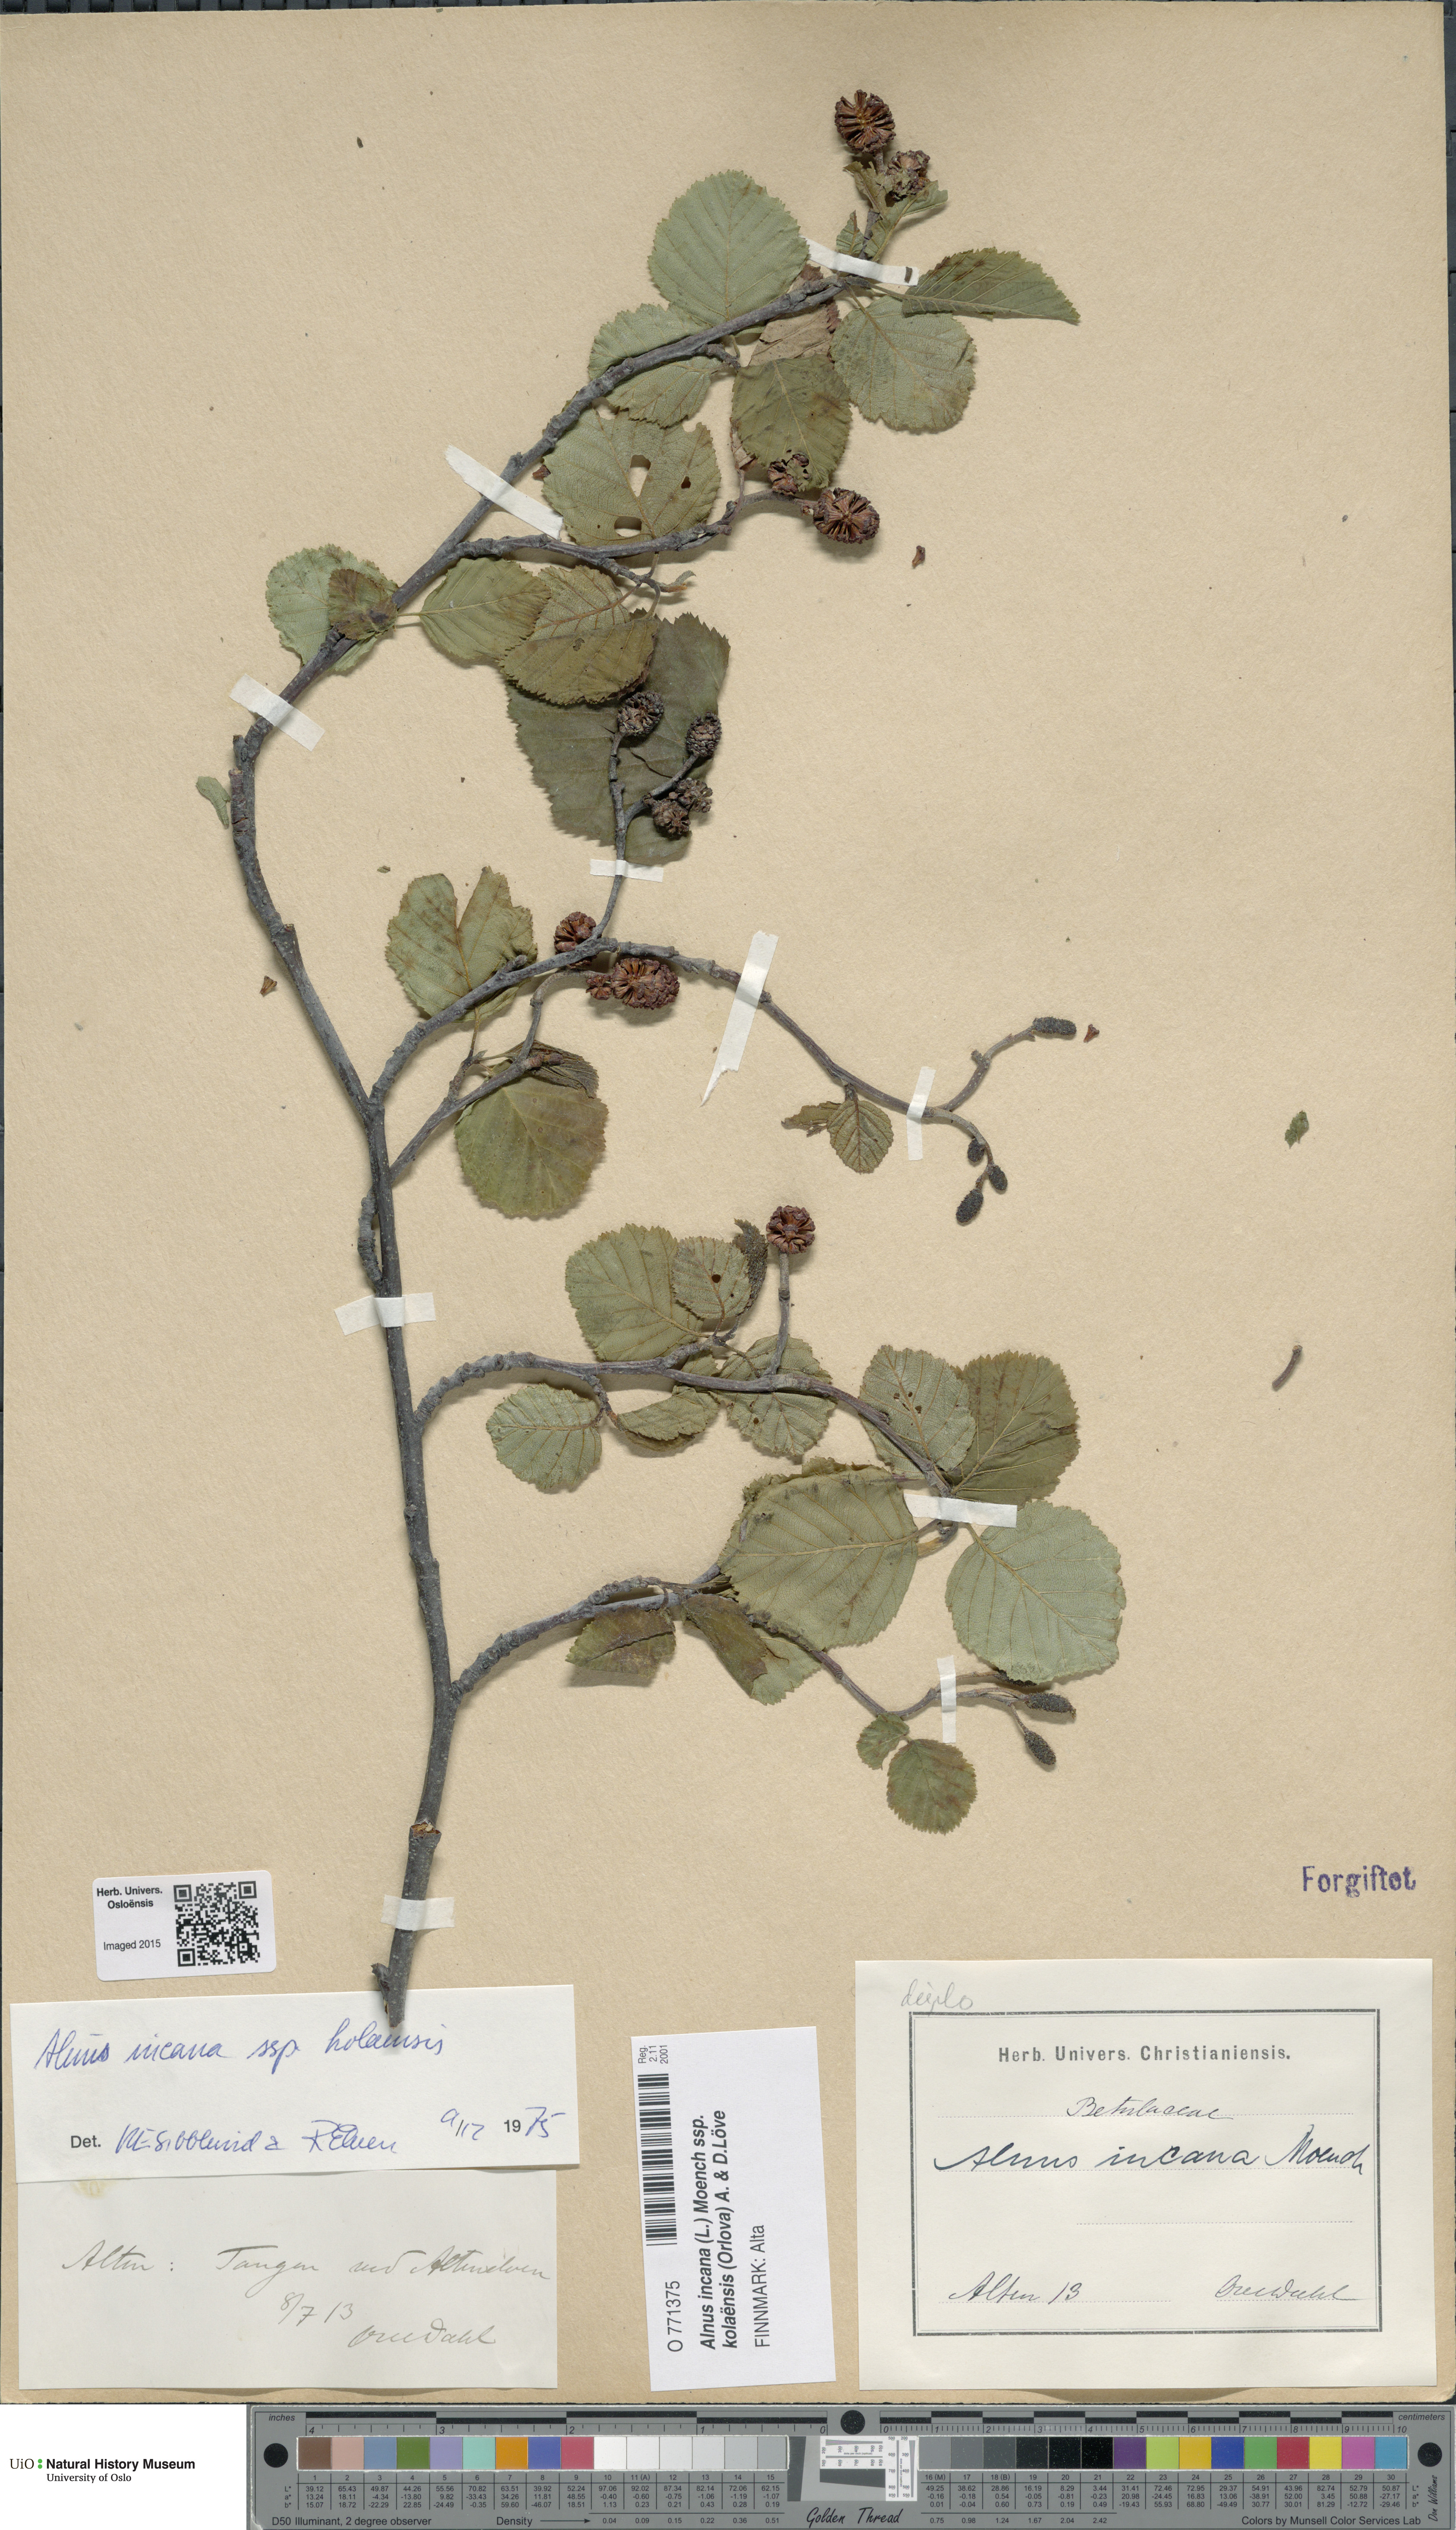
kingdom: Plantae
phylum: Tracheophyta
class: Magnoliopsida
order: Fagales
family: Betulaceae
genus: Alnus
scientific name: Alnus incana
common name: Grey alder
